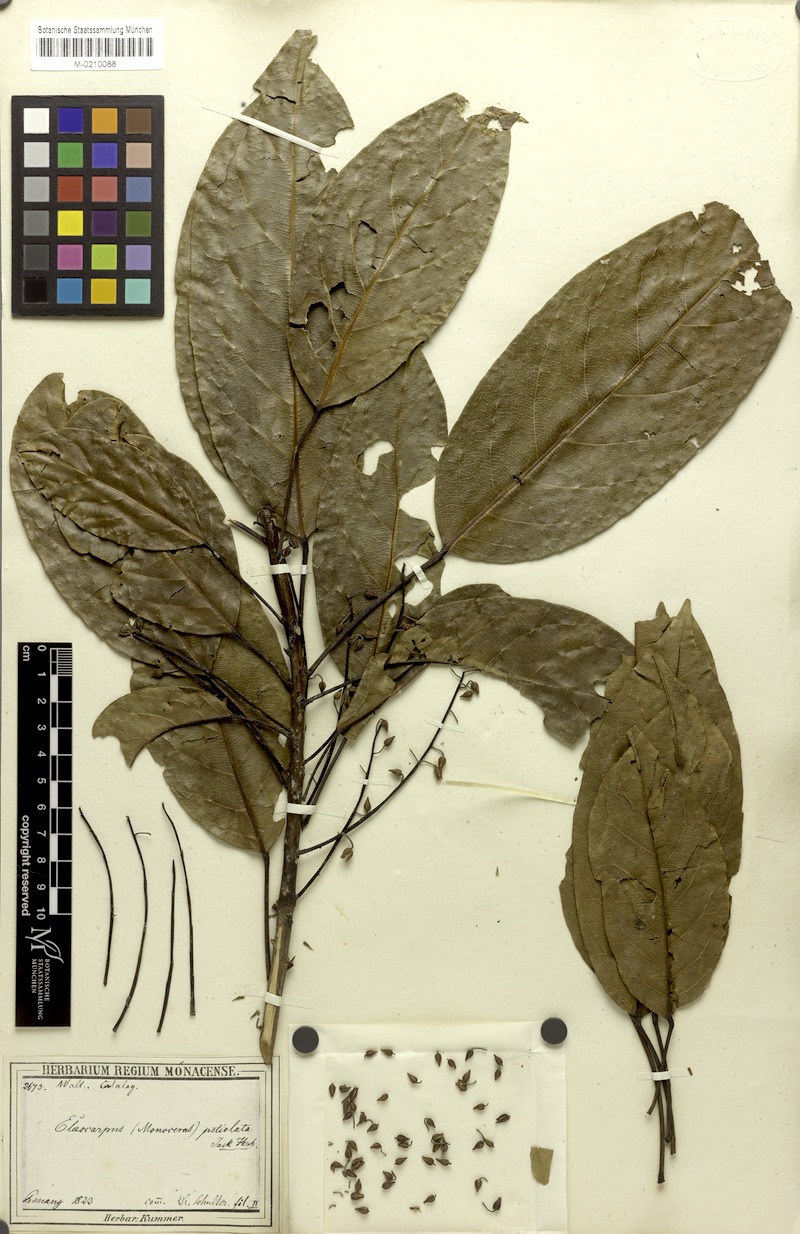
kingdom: Plantae
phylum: Tracheophyta
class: Magnoliopsida
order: Oxalidales
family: Elaeocarpaceae
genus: Elaeocarpus
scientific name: Elaeocarpus petiolatus
